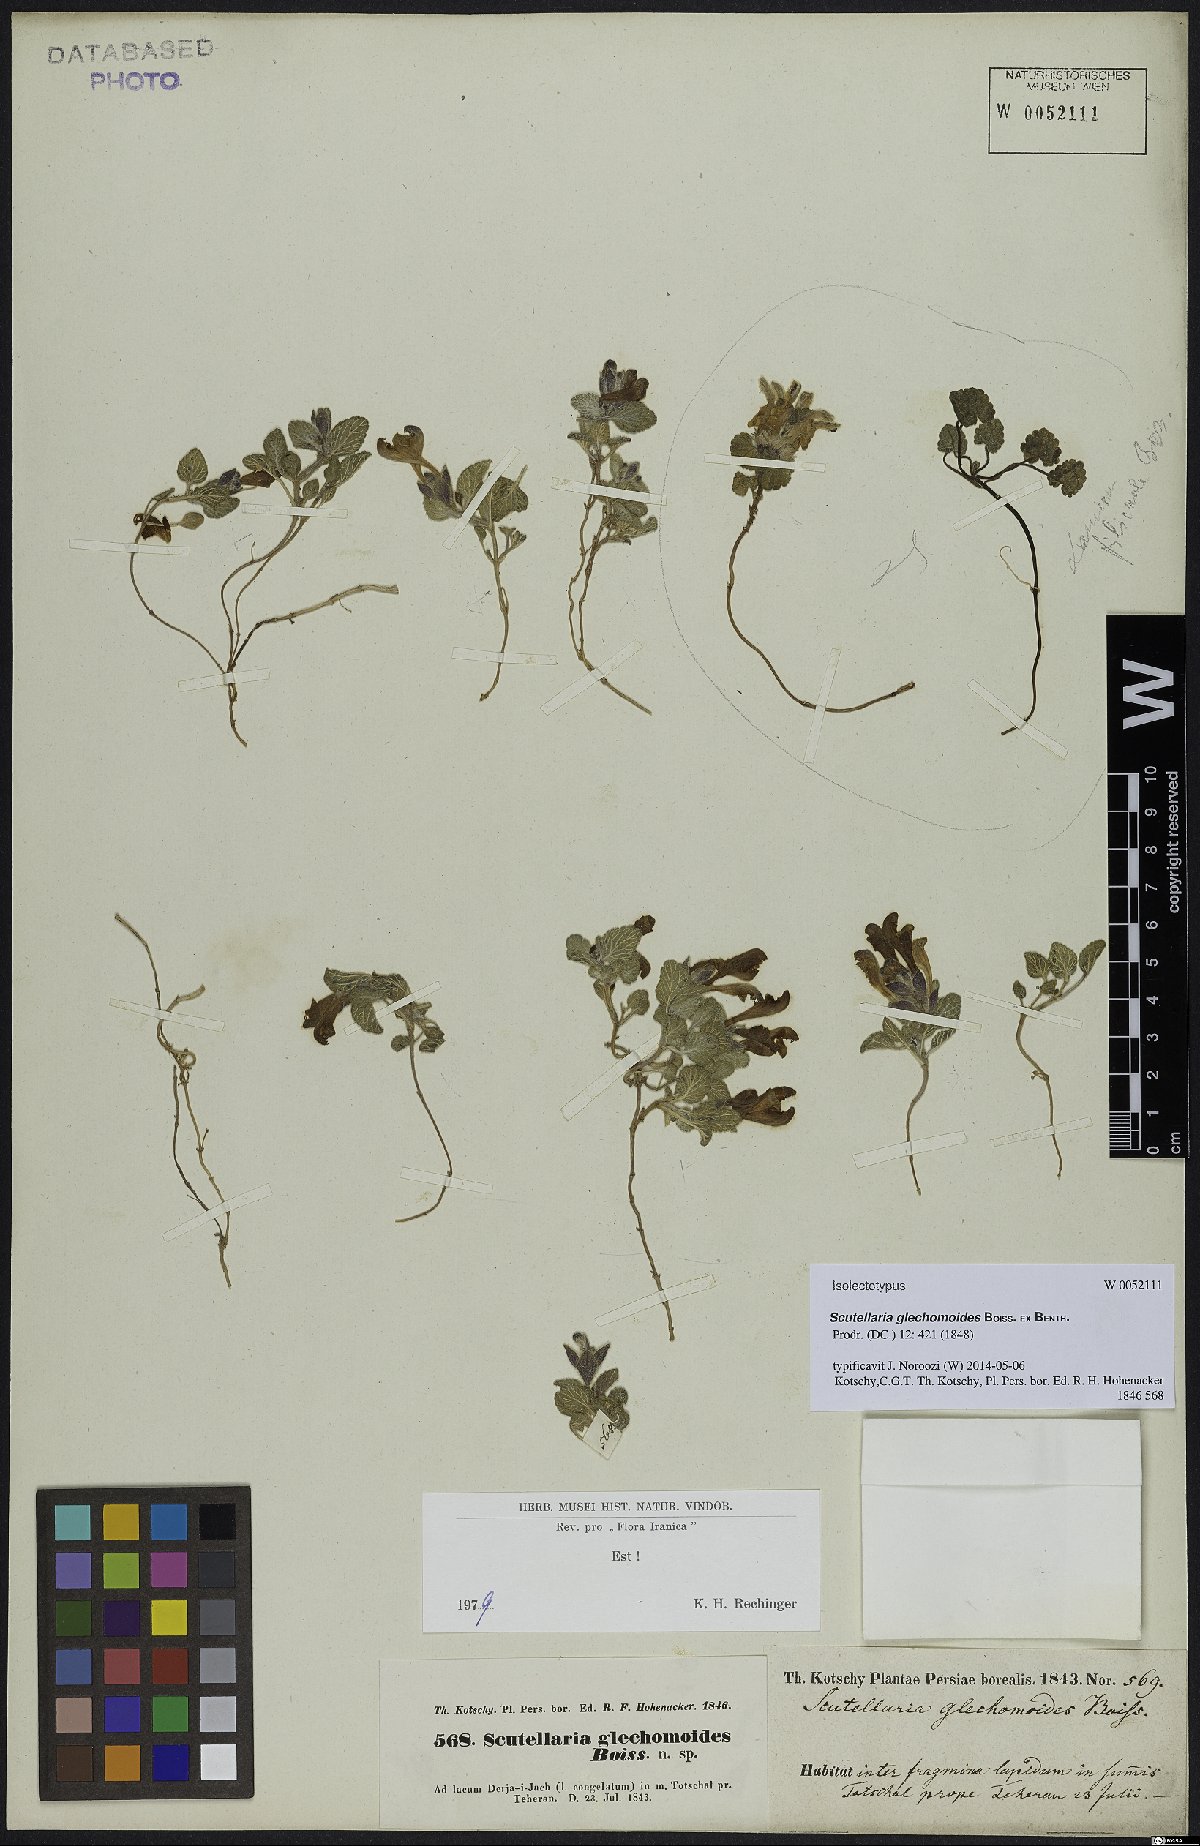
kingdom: Plantae
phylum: Tracheophyta
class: Magnoliopsida
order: Lamiales
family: Lamiaceae
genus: Scutellaria
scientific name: Scutellaria glechomoides
